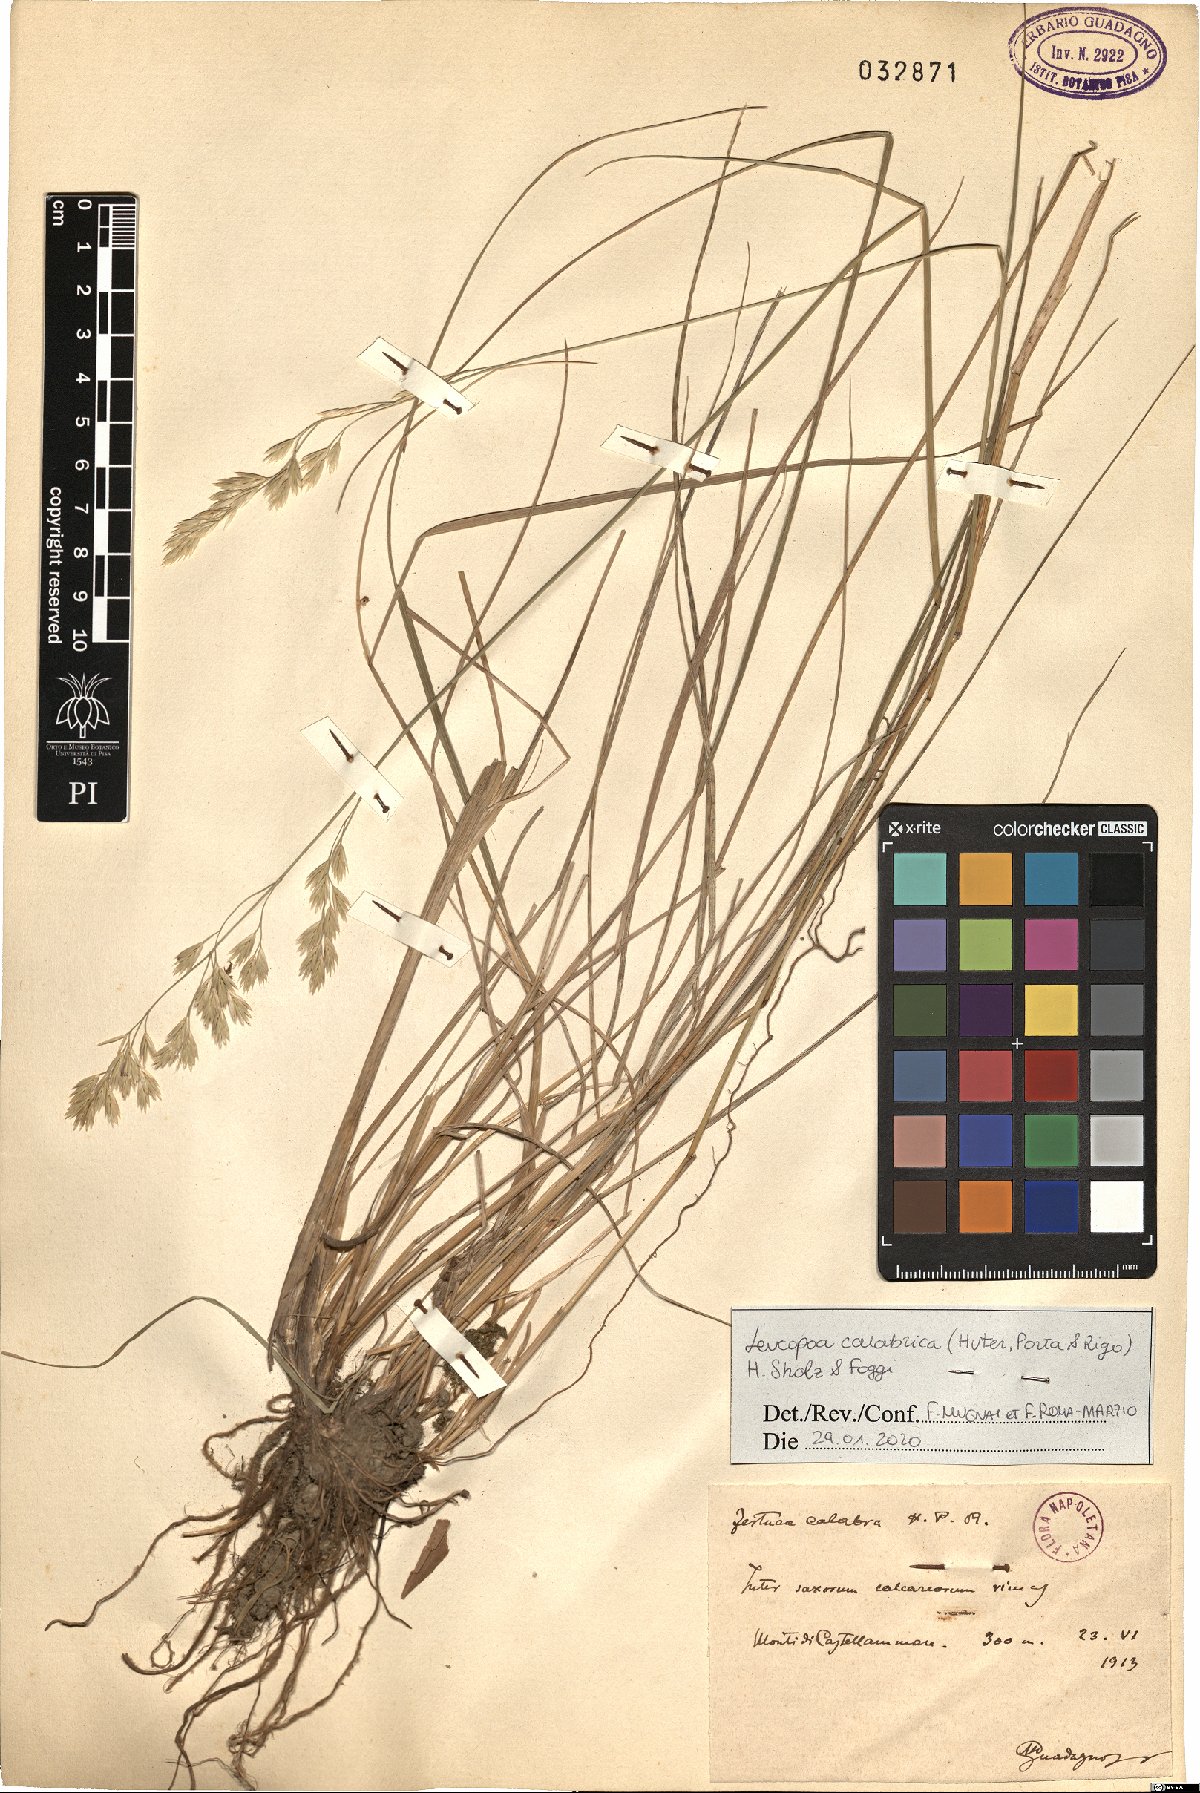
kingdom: Plantae
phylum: Tracheophyta
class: Liliopsida
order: Poales
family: Poaceae
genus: Festuca
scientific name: Festuca calabrica
